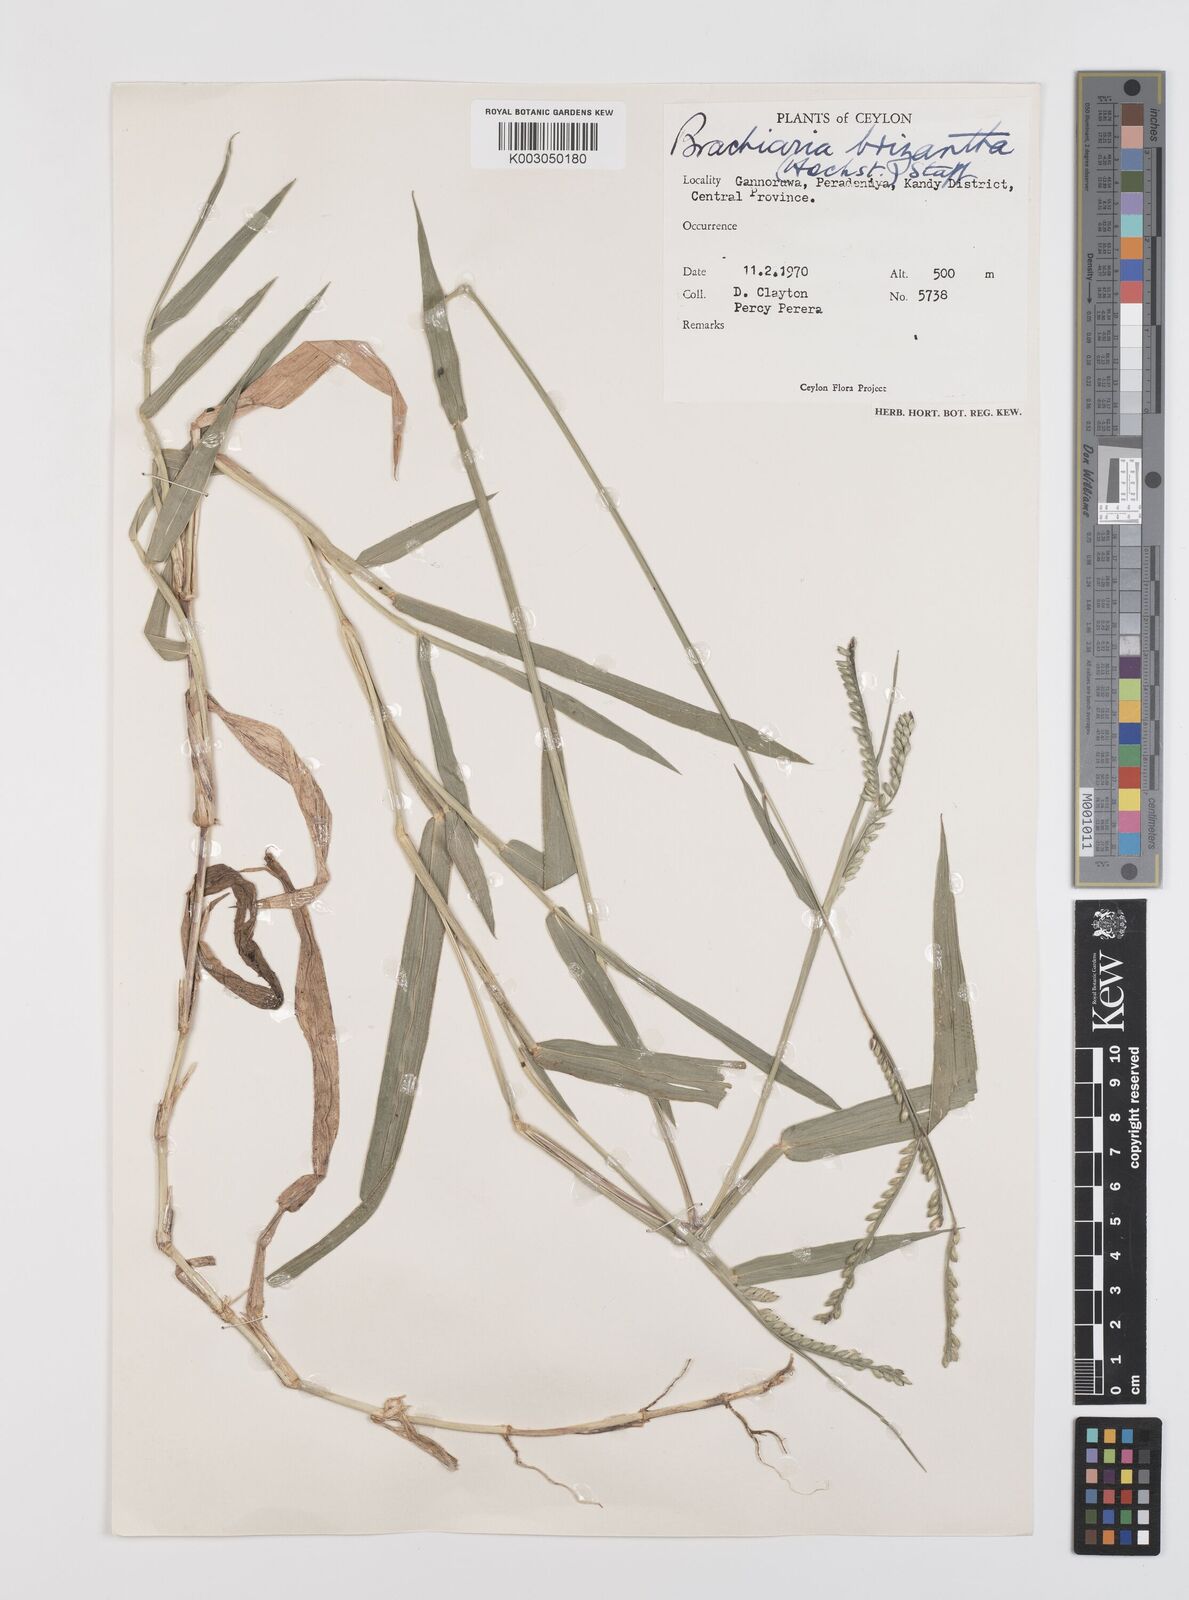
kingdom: Plantae
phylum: Tracheophyta
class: Liliopsida
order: Poales
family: Poaceae
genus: Urochloa
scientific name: Urochloa eminii
